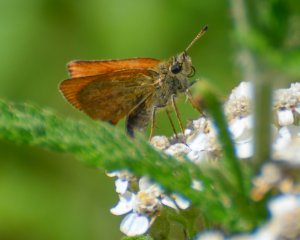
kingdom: Animalia
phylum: Arthropoda
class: Insecta
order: Lepidoptera
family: Hesperiidae
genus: Thymelicus
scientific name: Thymelicus lineola
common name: European Skipper
